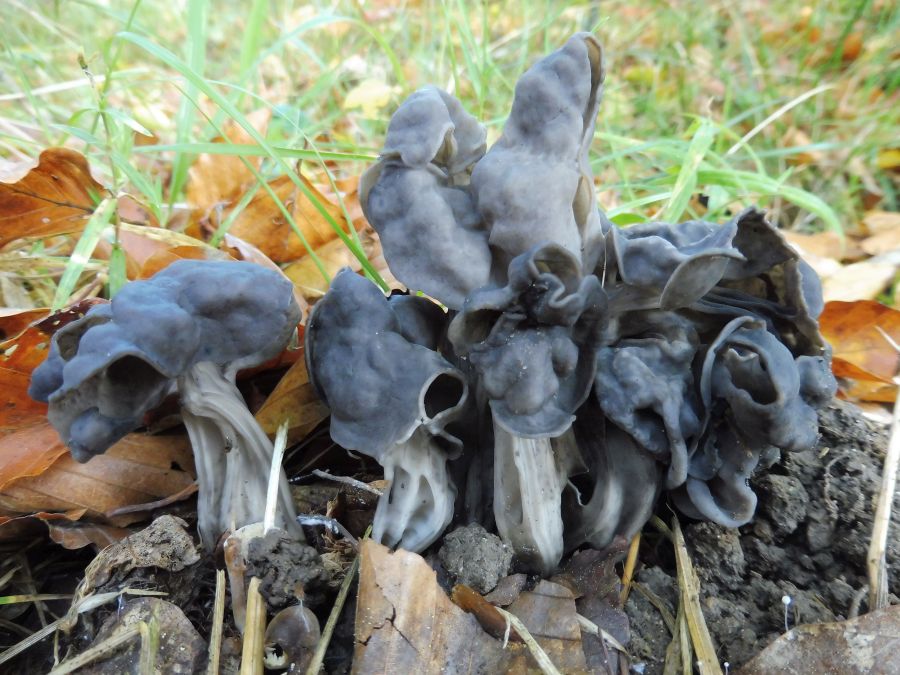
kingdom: Fungi
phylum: Ascomycota
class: Pezizomycetes
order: Pezizales
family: Helvellaceae
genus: Helvella
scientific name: Helvella lacunosa
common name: grubet foldhat
